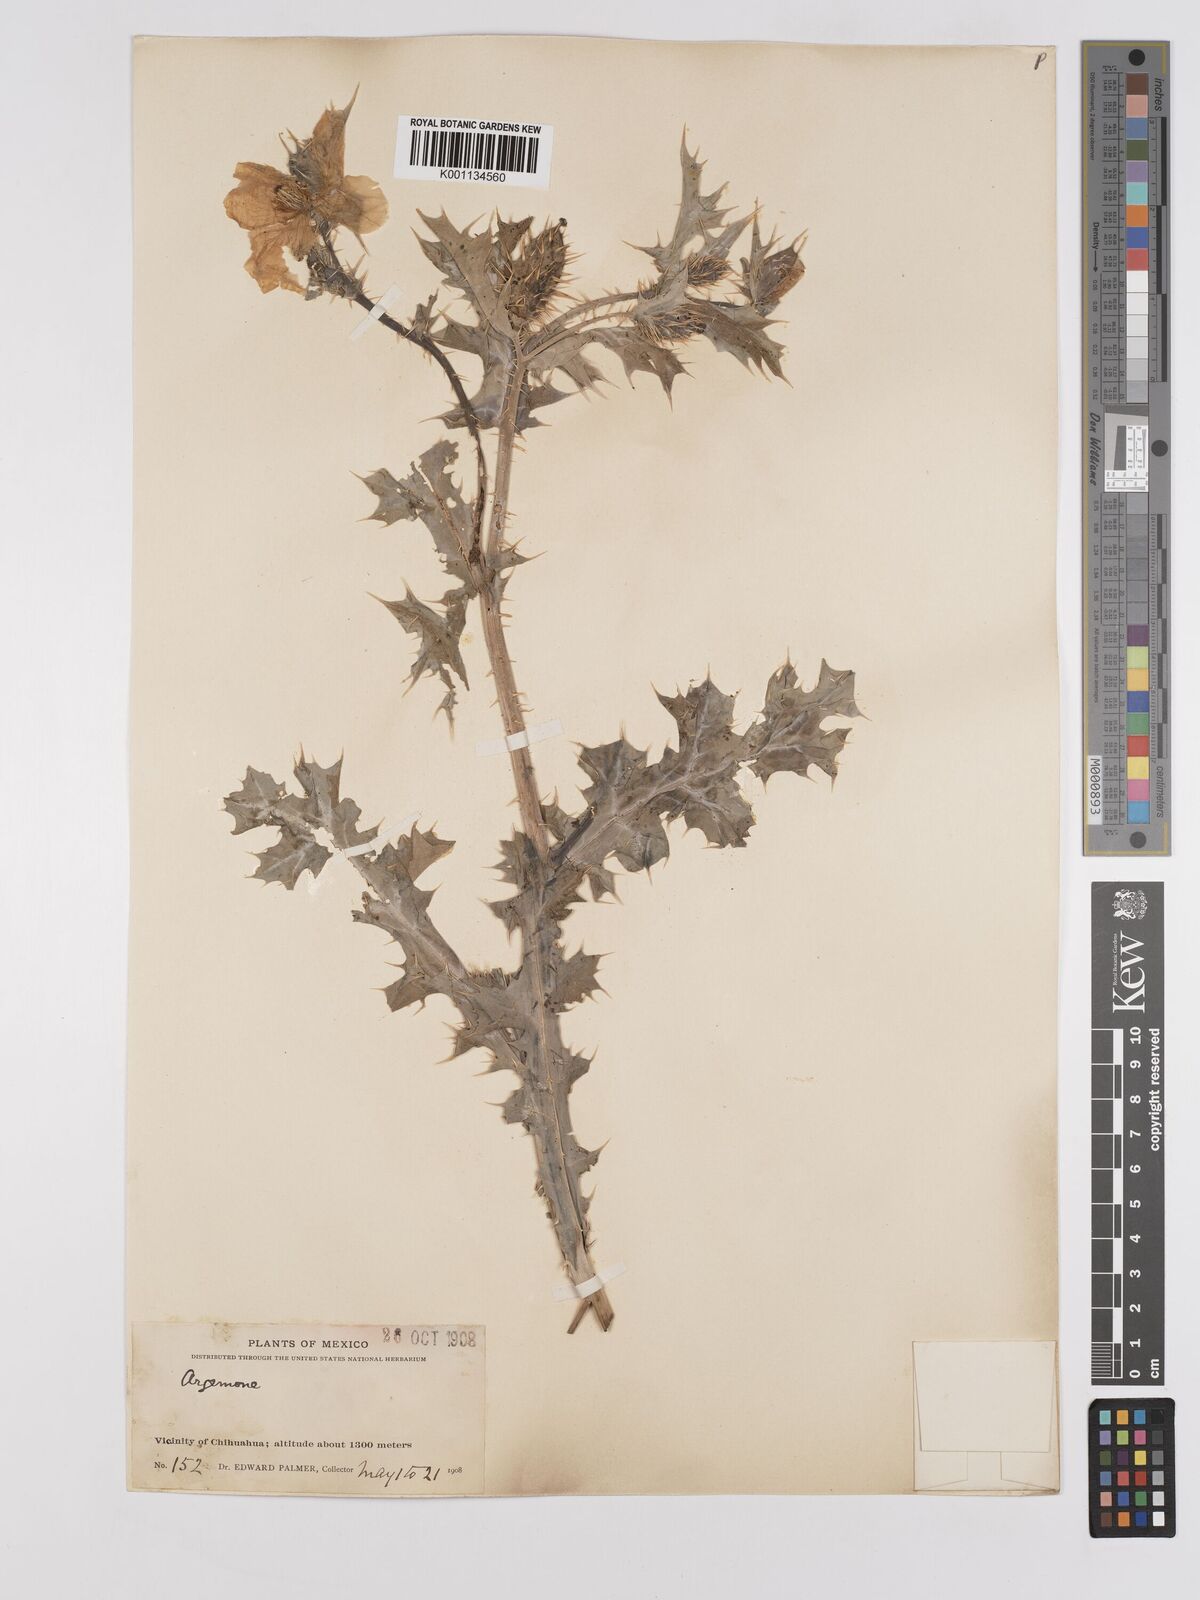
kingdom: Plantae
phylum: Tracheophyta
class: Magnoliopsida
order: Ranunculales
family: Papaveraceae
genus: Argemone
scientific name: Argemone mexicana
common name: Mexican poppy
